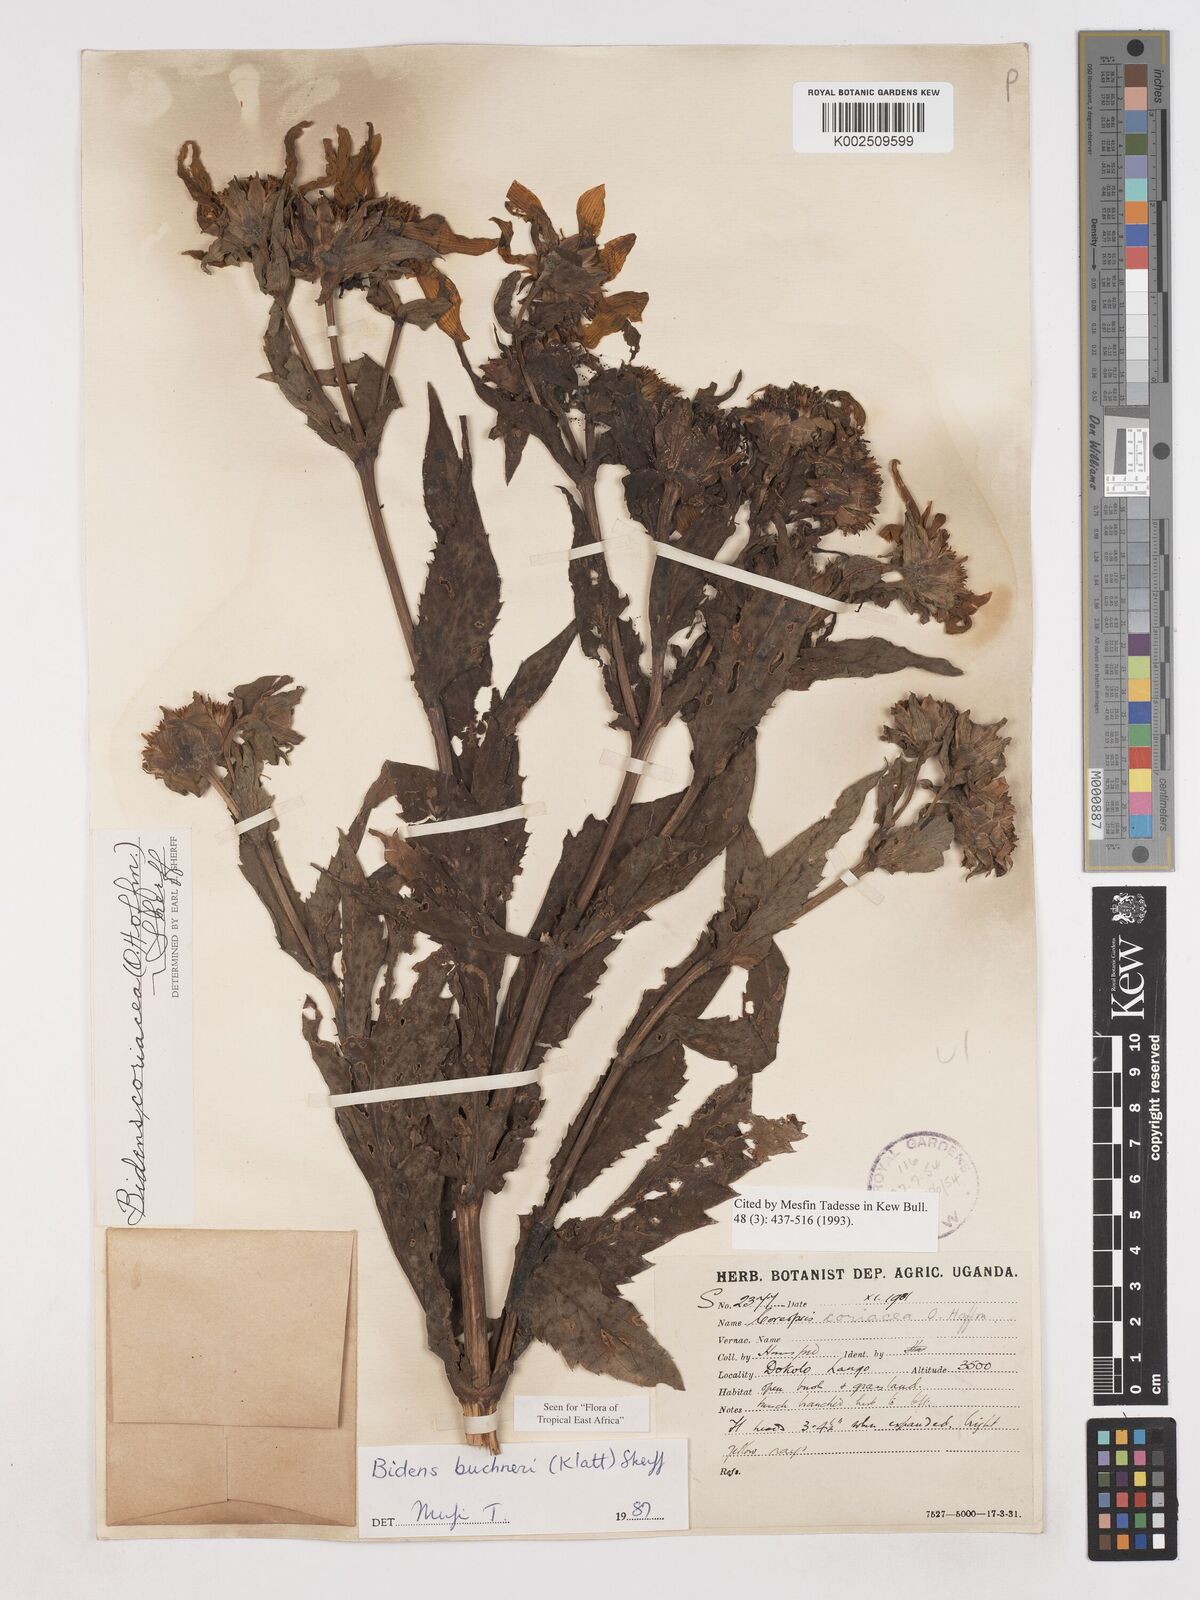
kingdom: Plantae
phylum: Tracheophyta
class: Magnoliopsida
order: Asterales
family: Asteraceae
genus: Bidens
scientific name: Bidens buchneri
